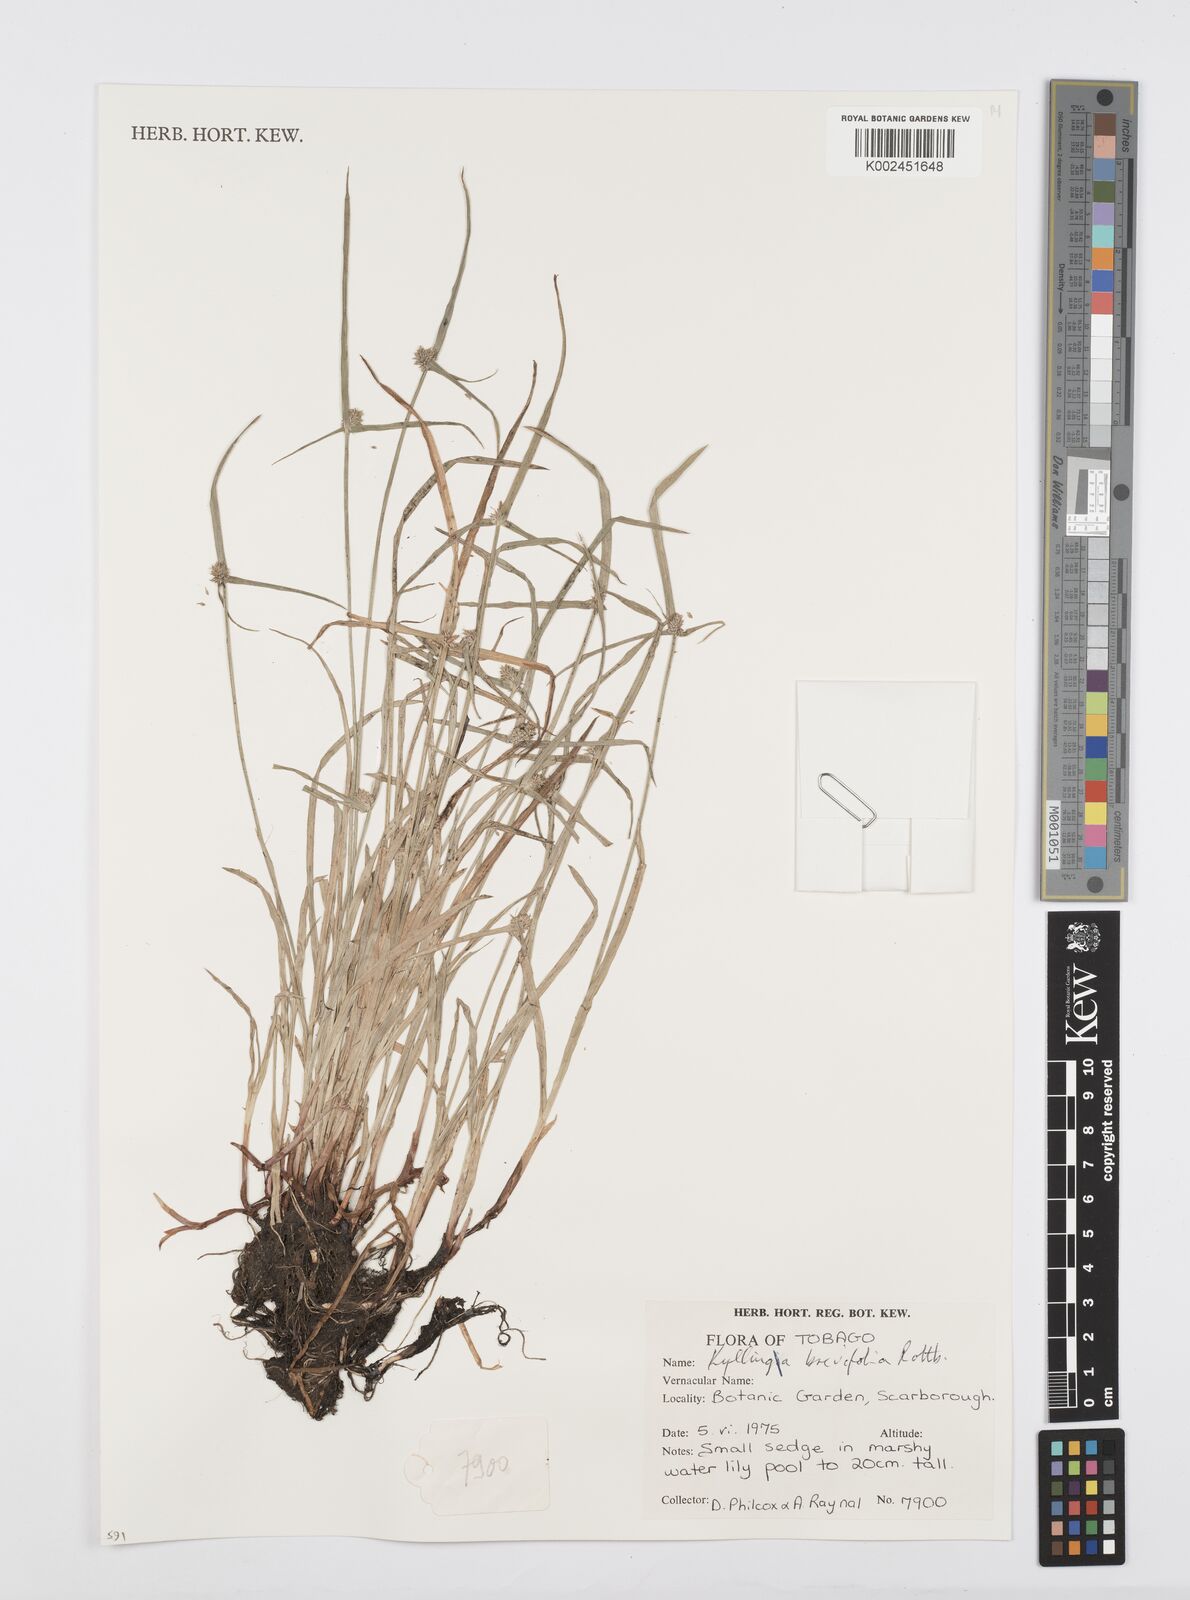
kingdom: Plantae
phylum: Tracheophyta
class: Liliopsida
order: Poales
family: Cyperaceae
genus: Cyperus
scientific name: Cyperus brevifolius
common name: Globe kyllinga
